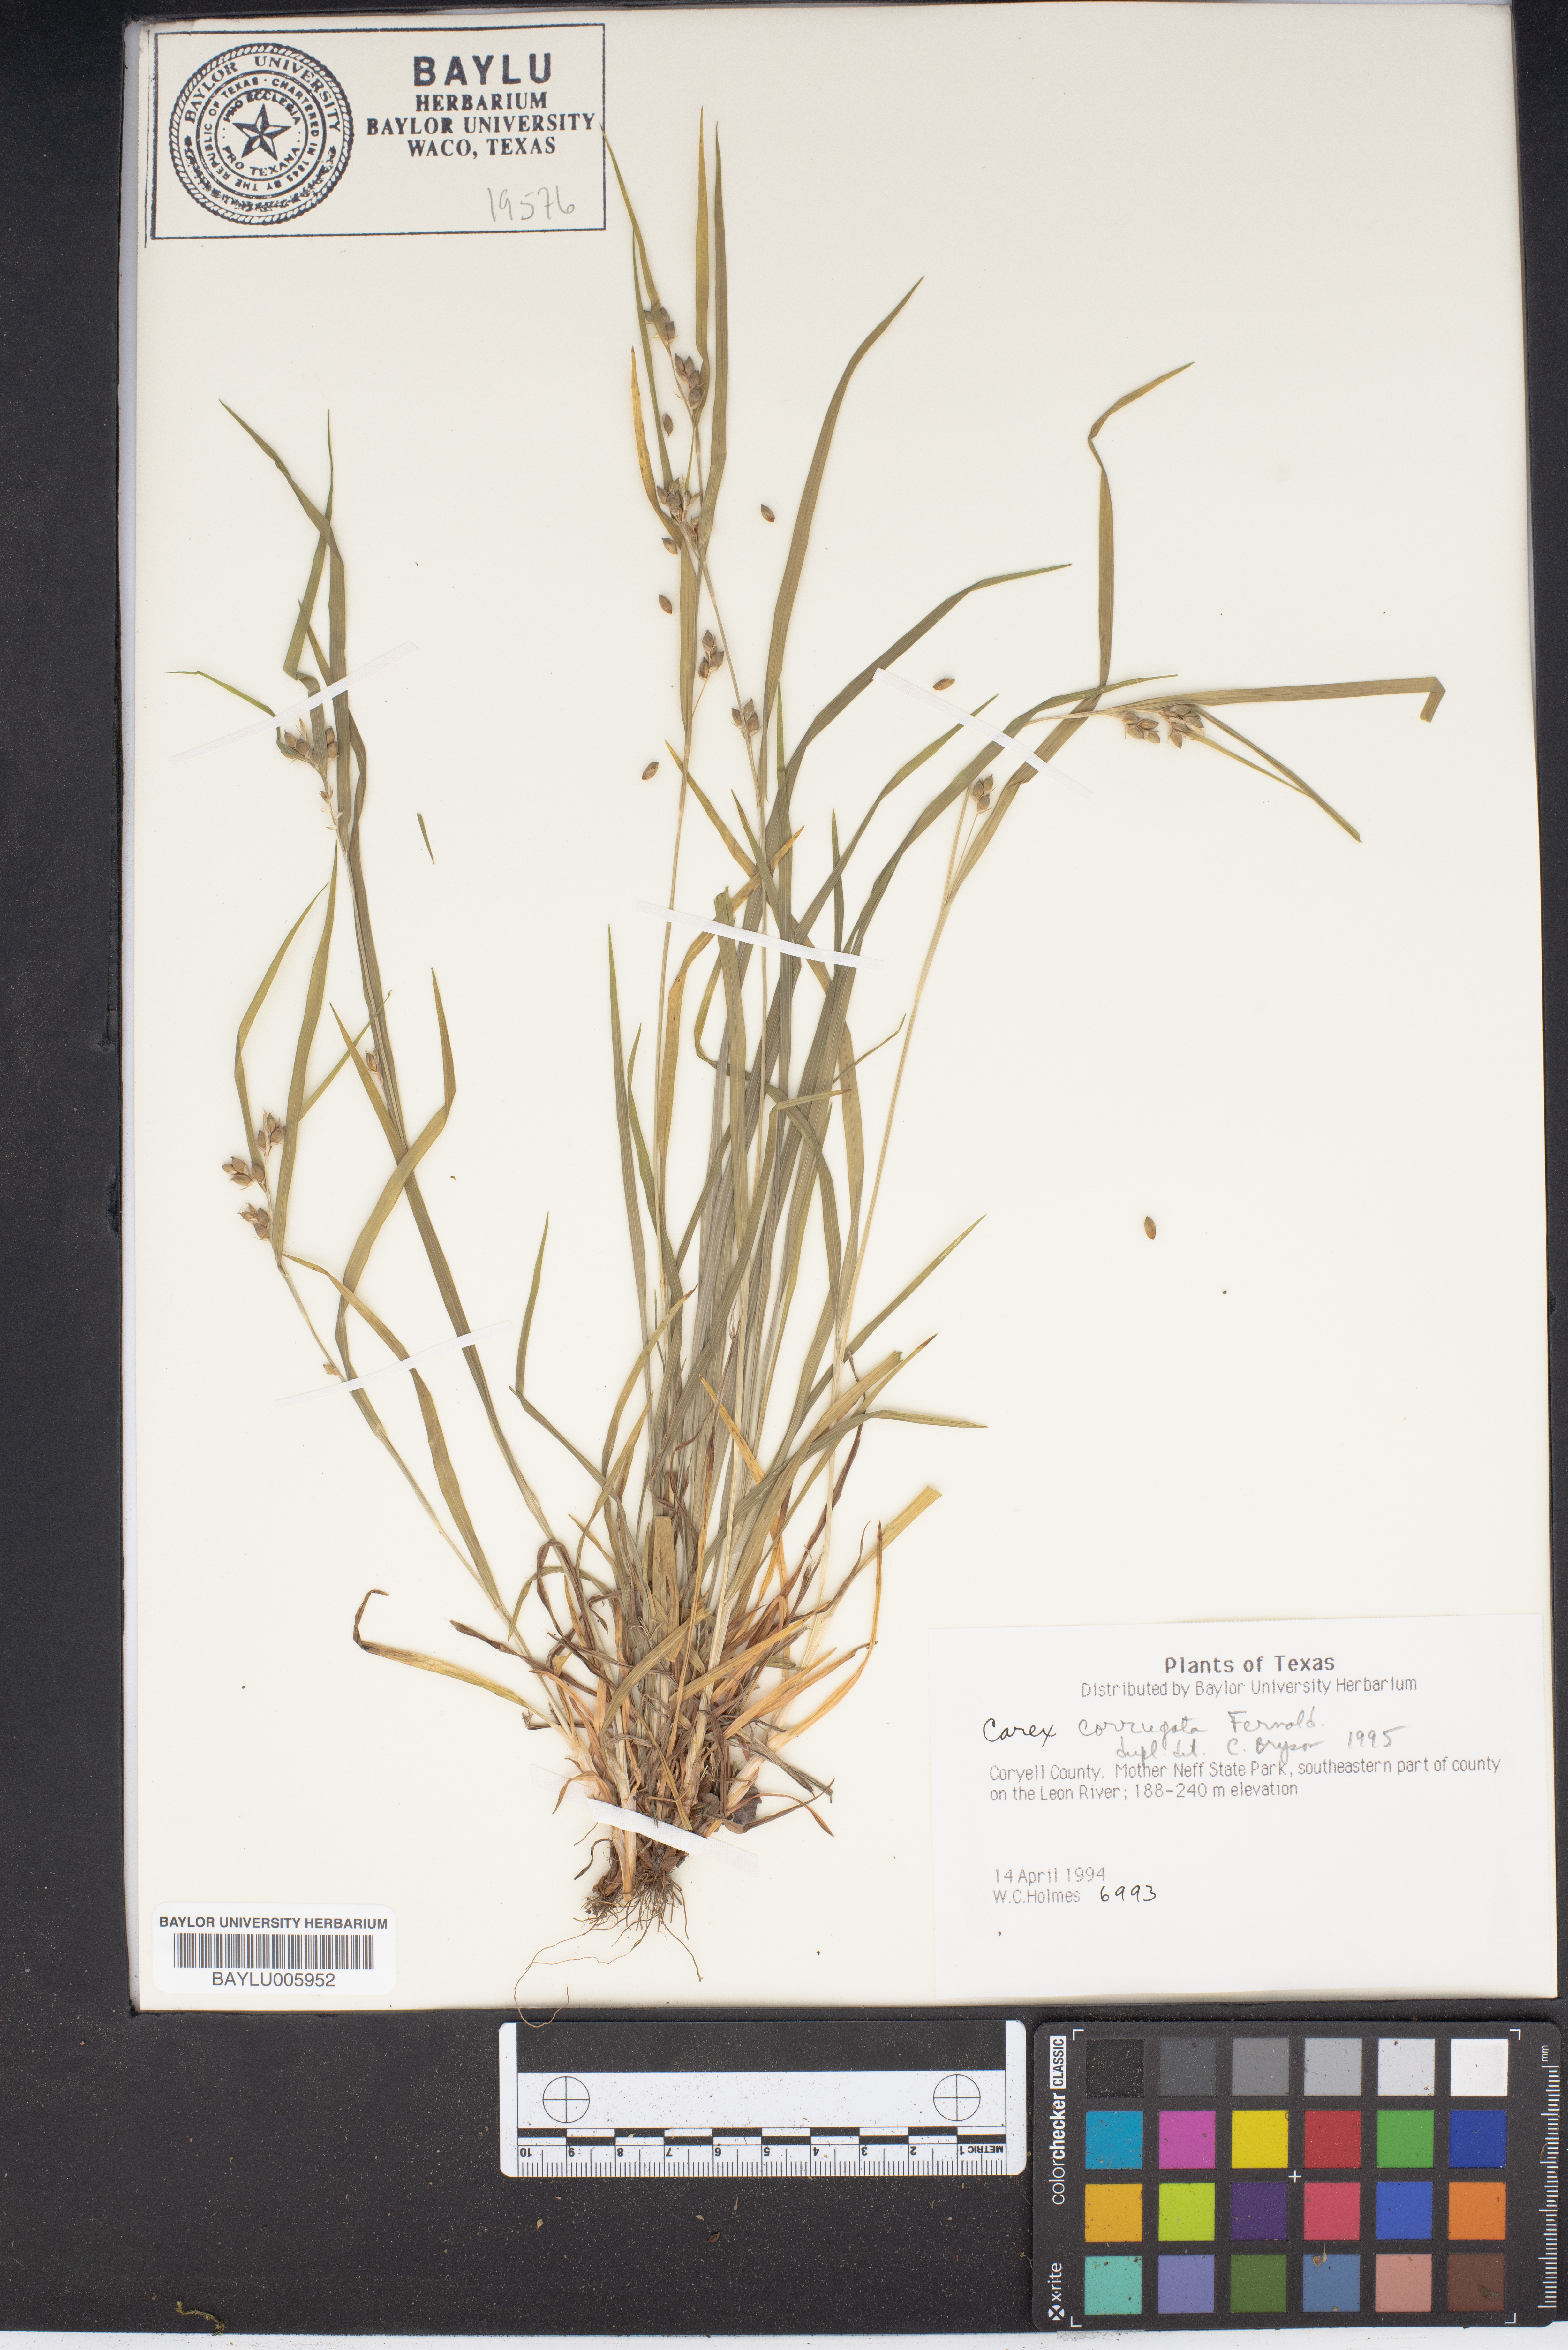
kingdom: Plantae
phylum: Tracheophyta
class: Liliopsida
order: Poales
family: Cyperaceae
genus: Carex
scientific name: Carex corrugata
